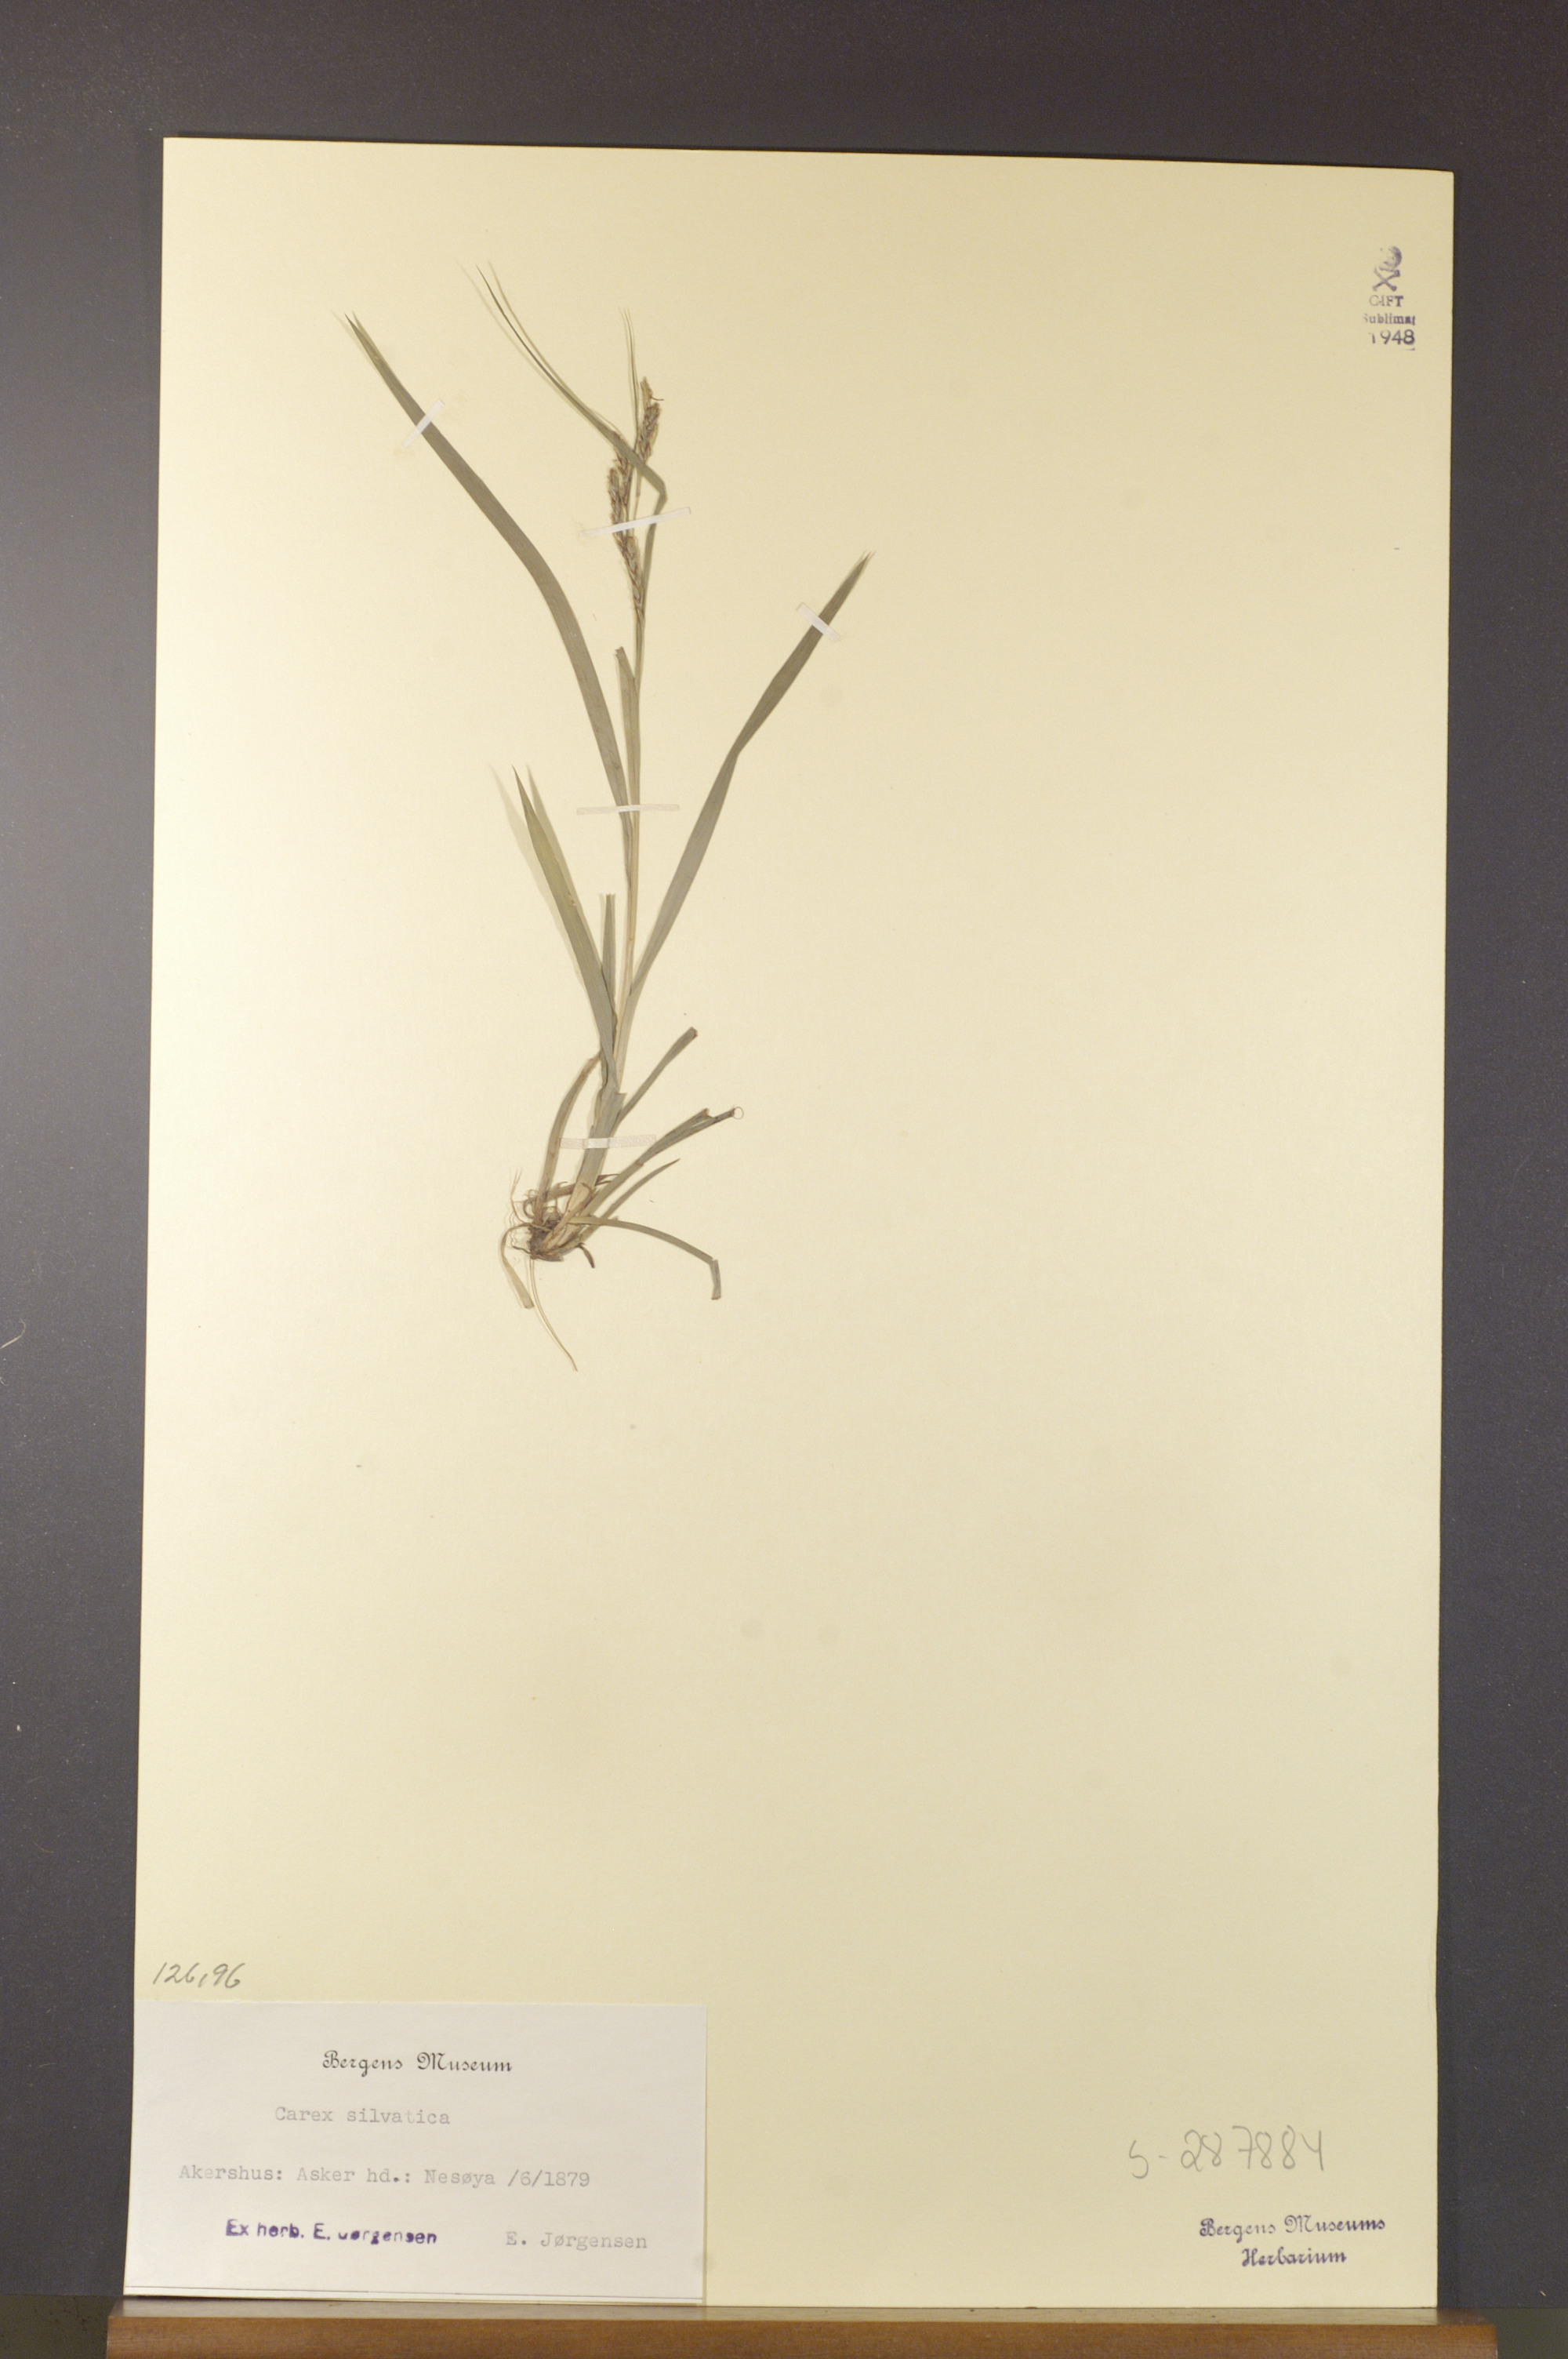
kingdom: Plantae
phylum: Tracheophyta
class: Liliopsida
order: Poales
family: Cyperaceae
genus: Carex
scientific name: Carex sylvatica
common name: Wood-sedge
